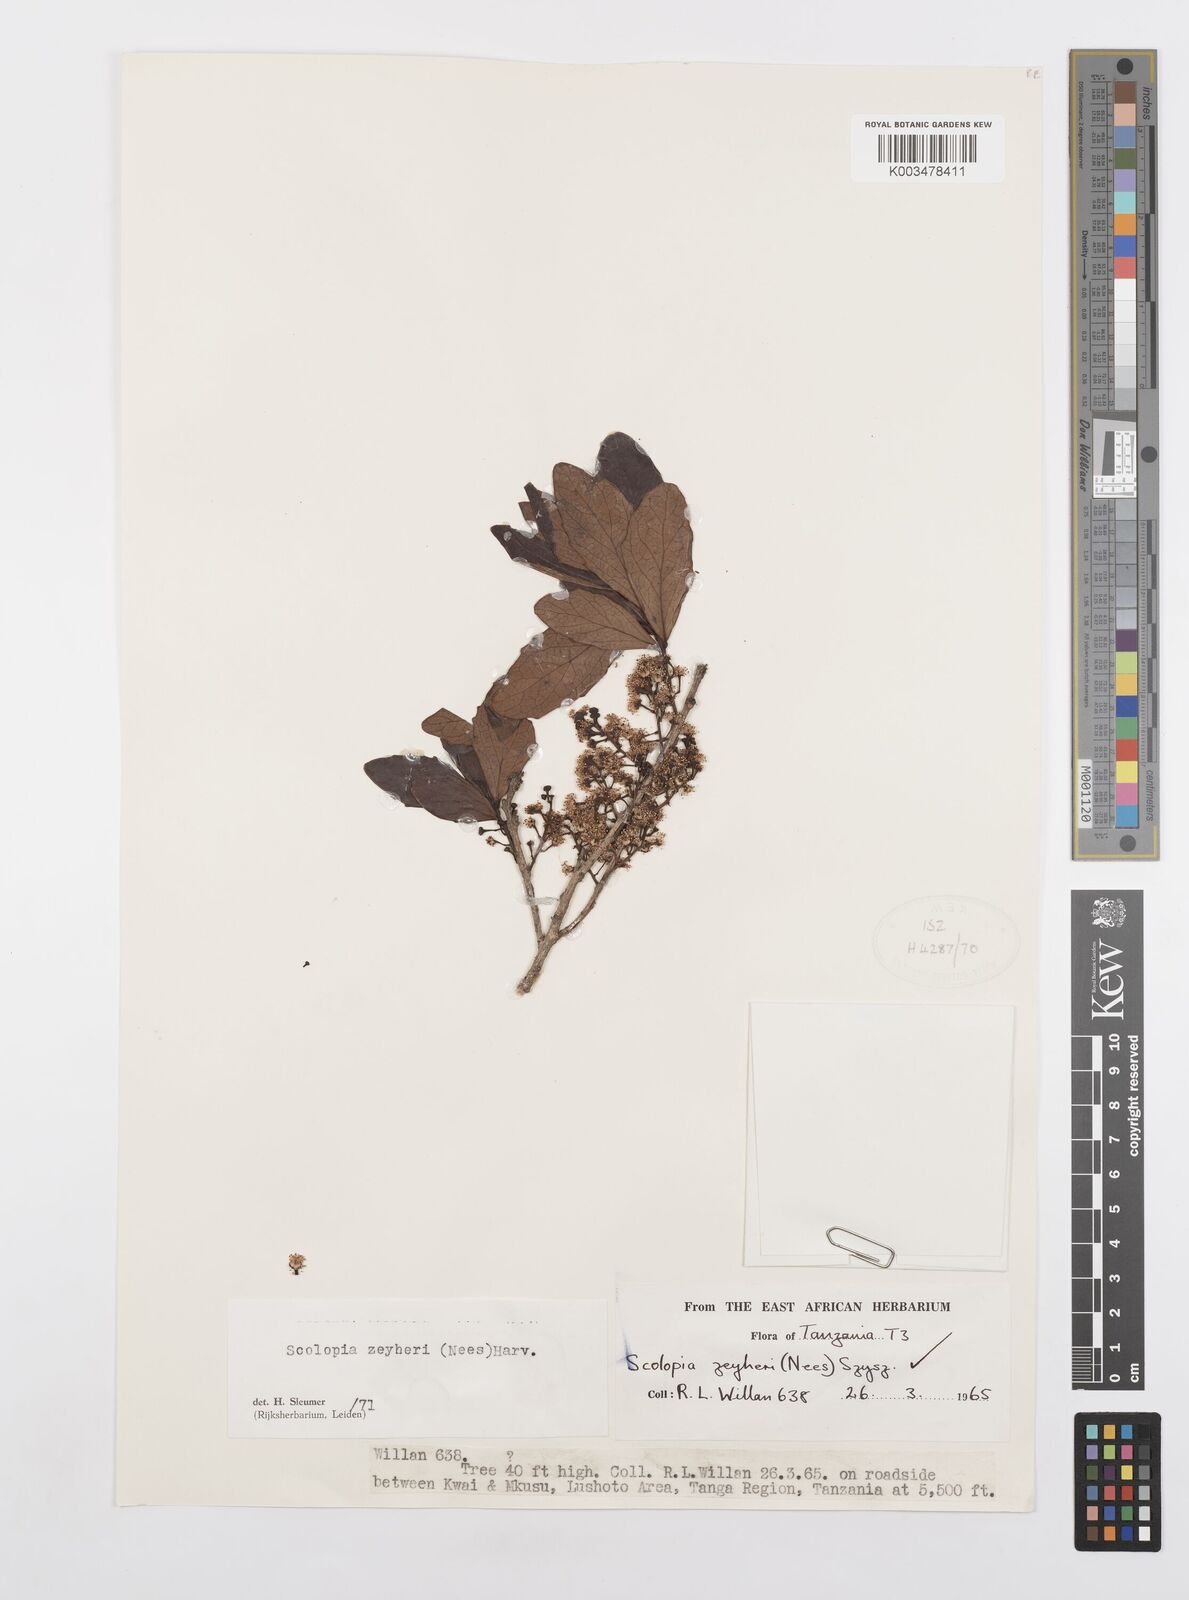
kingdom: Plantae
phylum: Tracheophyta
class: Magnoliopsida
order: Malpighiales
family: Salicaceae
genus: Scolopia
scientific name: Scolopia zeyheri
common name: Thorn pear
